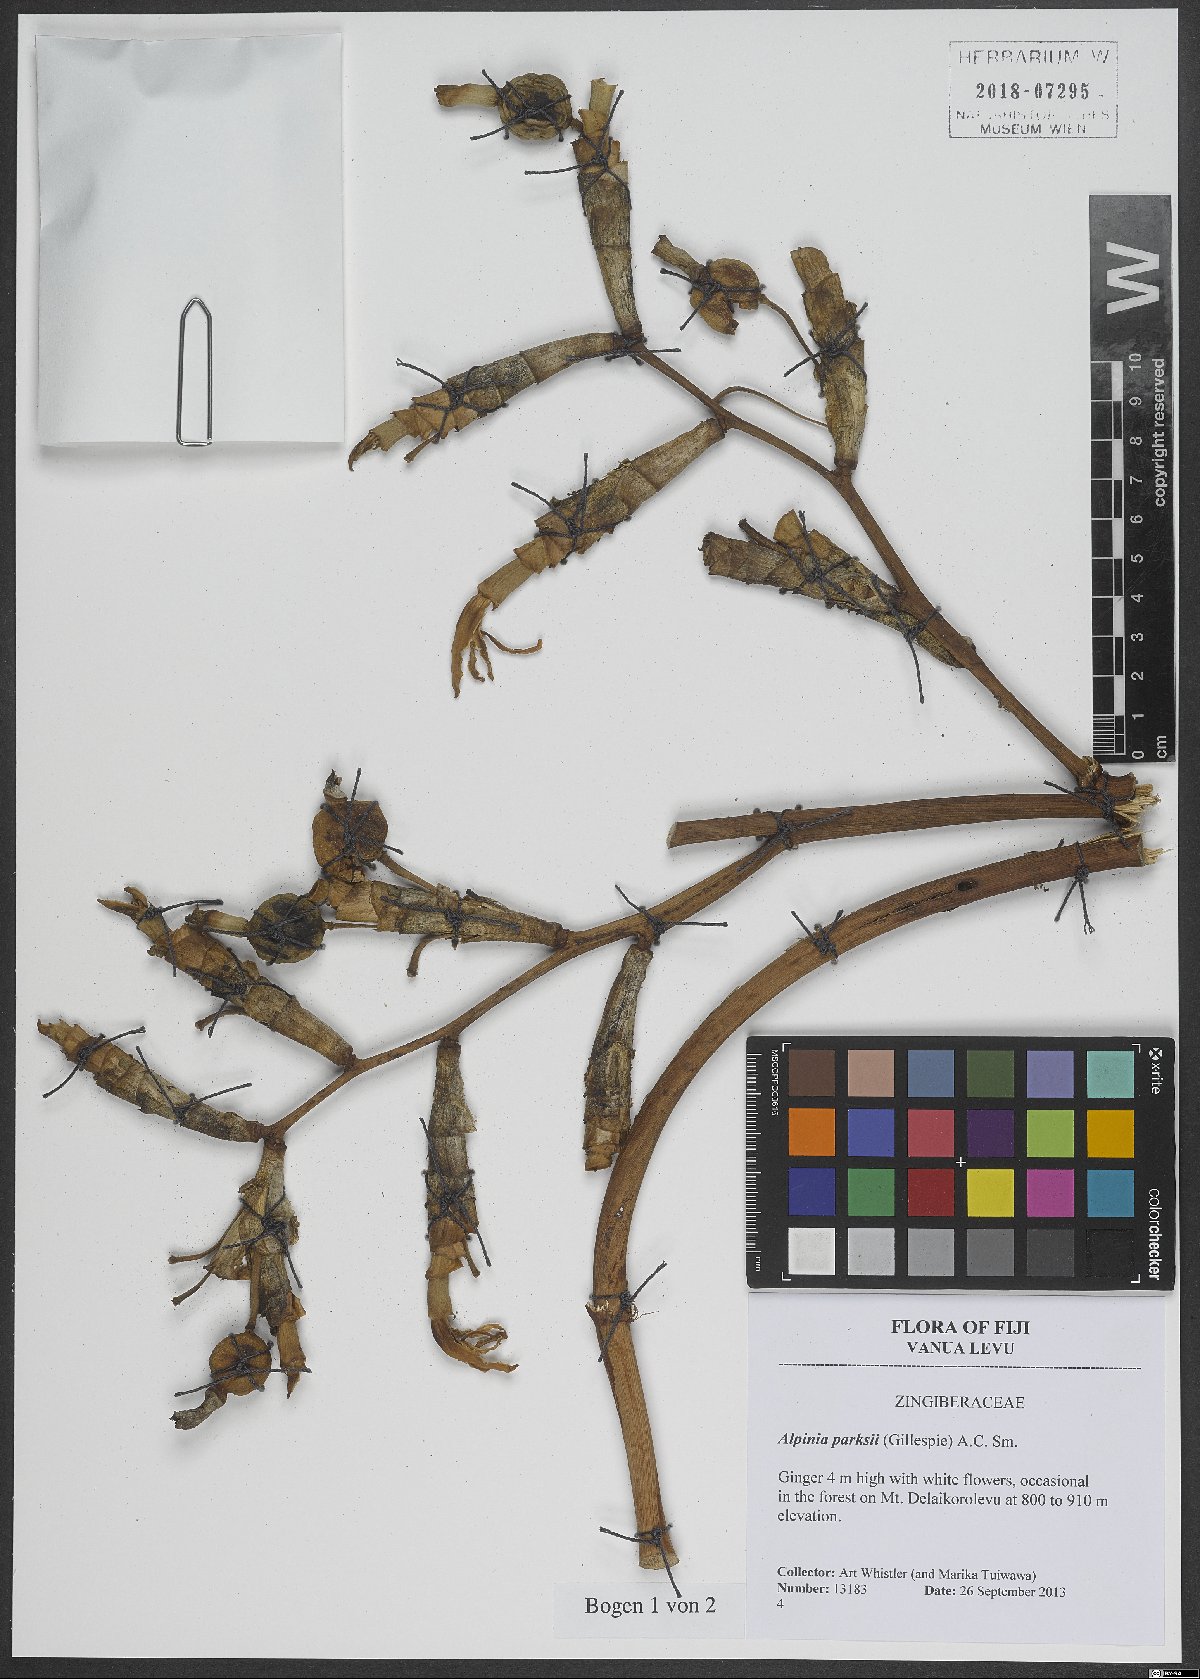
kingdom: Plantae
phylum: Tracheophyta
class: Liliopsida
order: Zingiberales
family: Zingiberaceae
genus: Alpinia
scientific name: Alpinia parksii
